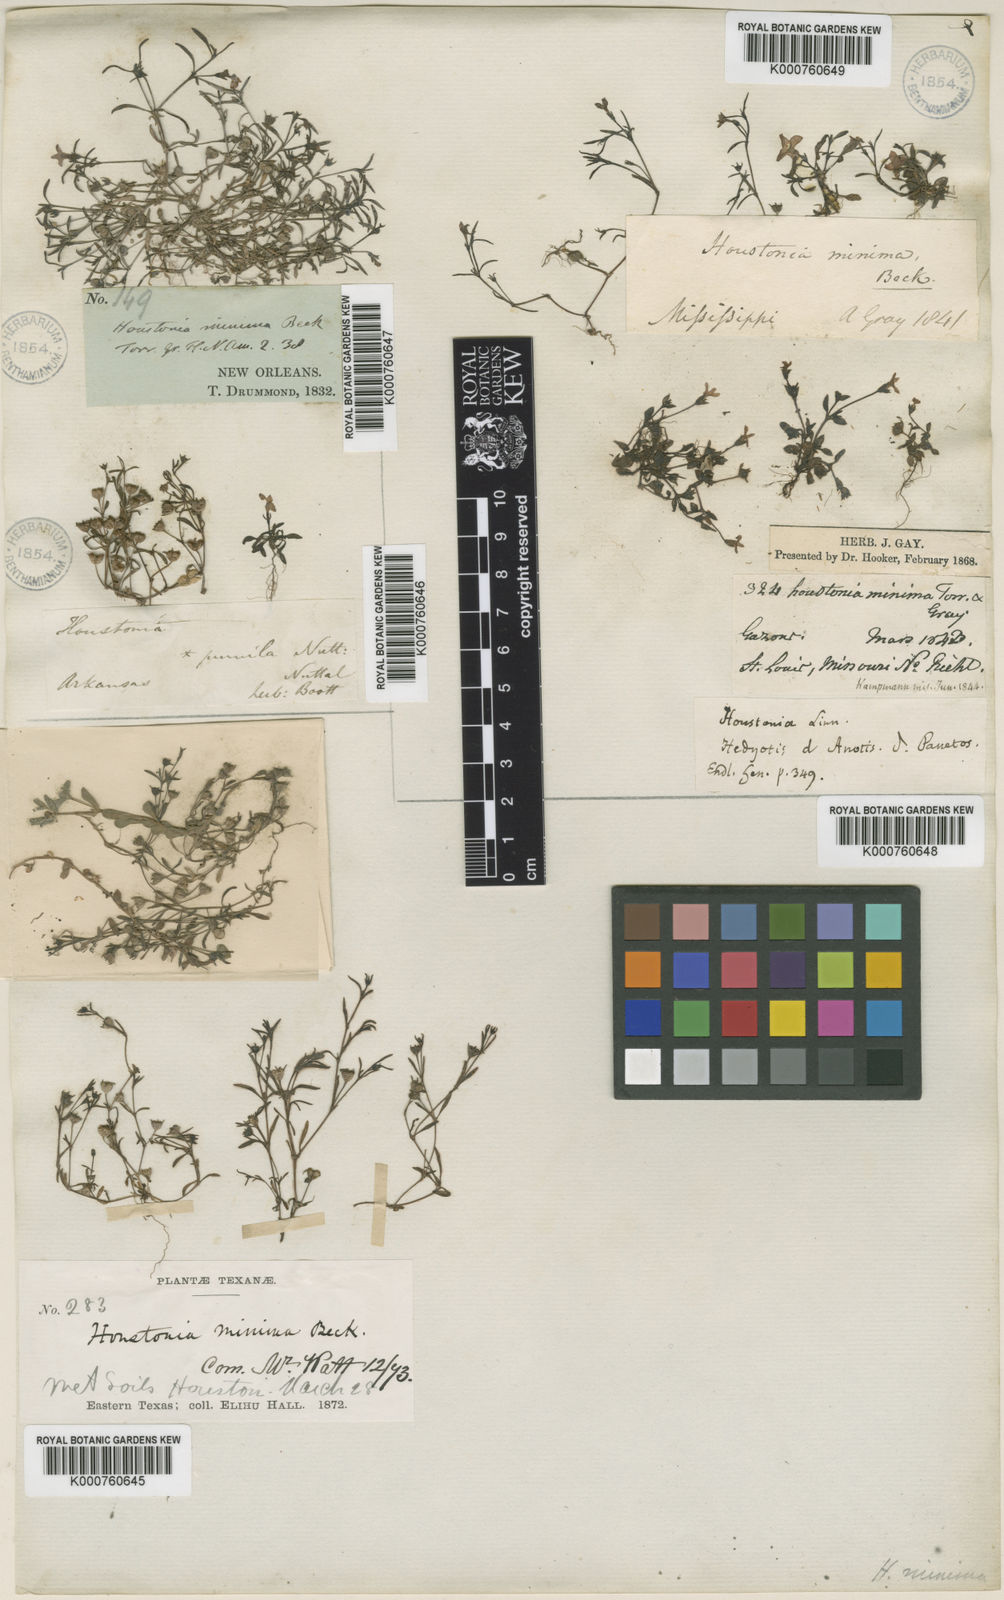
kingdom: Plantae
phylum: Tracheophyta
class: Magnoliopsida
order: Gentianales
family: Rubiaceae
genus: Houstonia
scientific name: Houstonia pusilla
